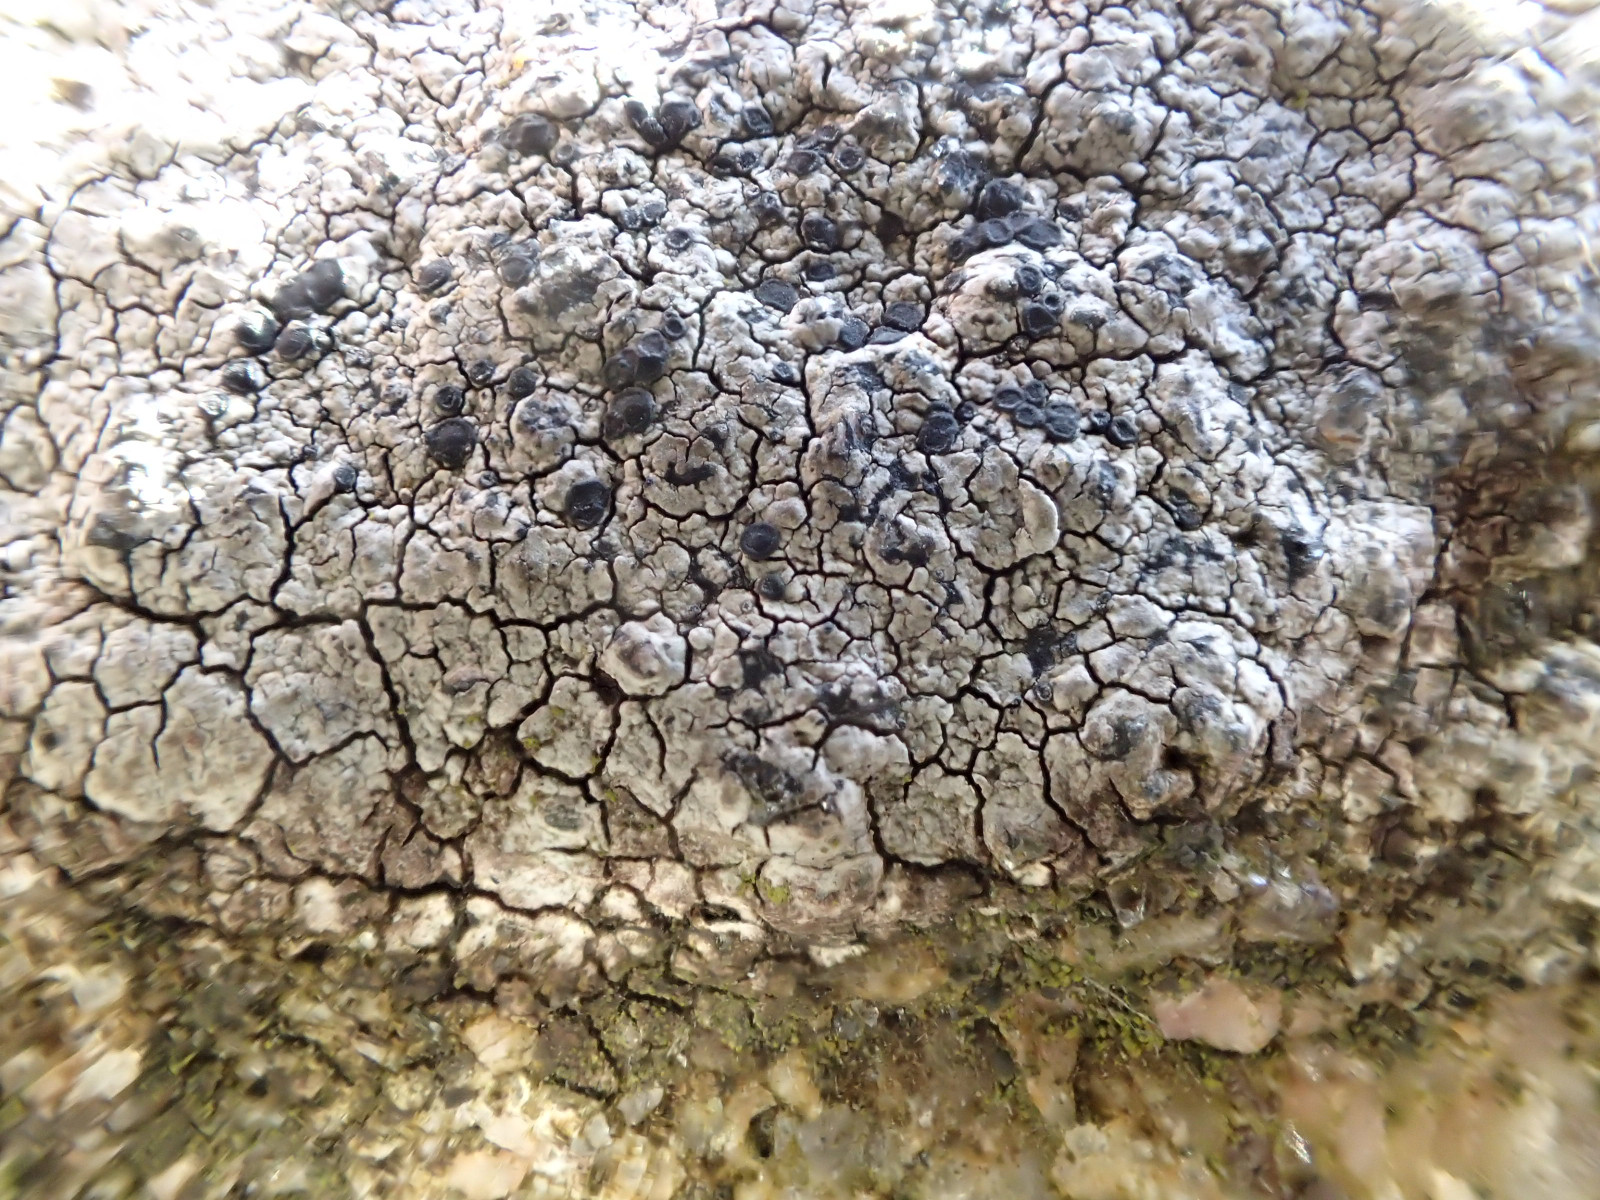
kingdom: Fungi
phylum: Ascomycota
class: Lecanoromycetes
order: Rhizocarpales
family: Rhizocarpaceae
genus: Rhizocarpon
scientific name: Rhizocarpon reductum
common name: mørk landkortlav
